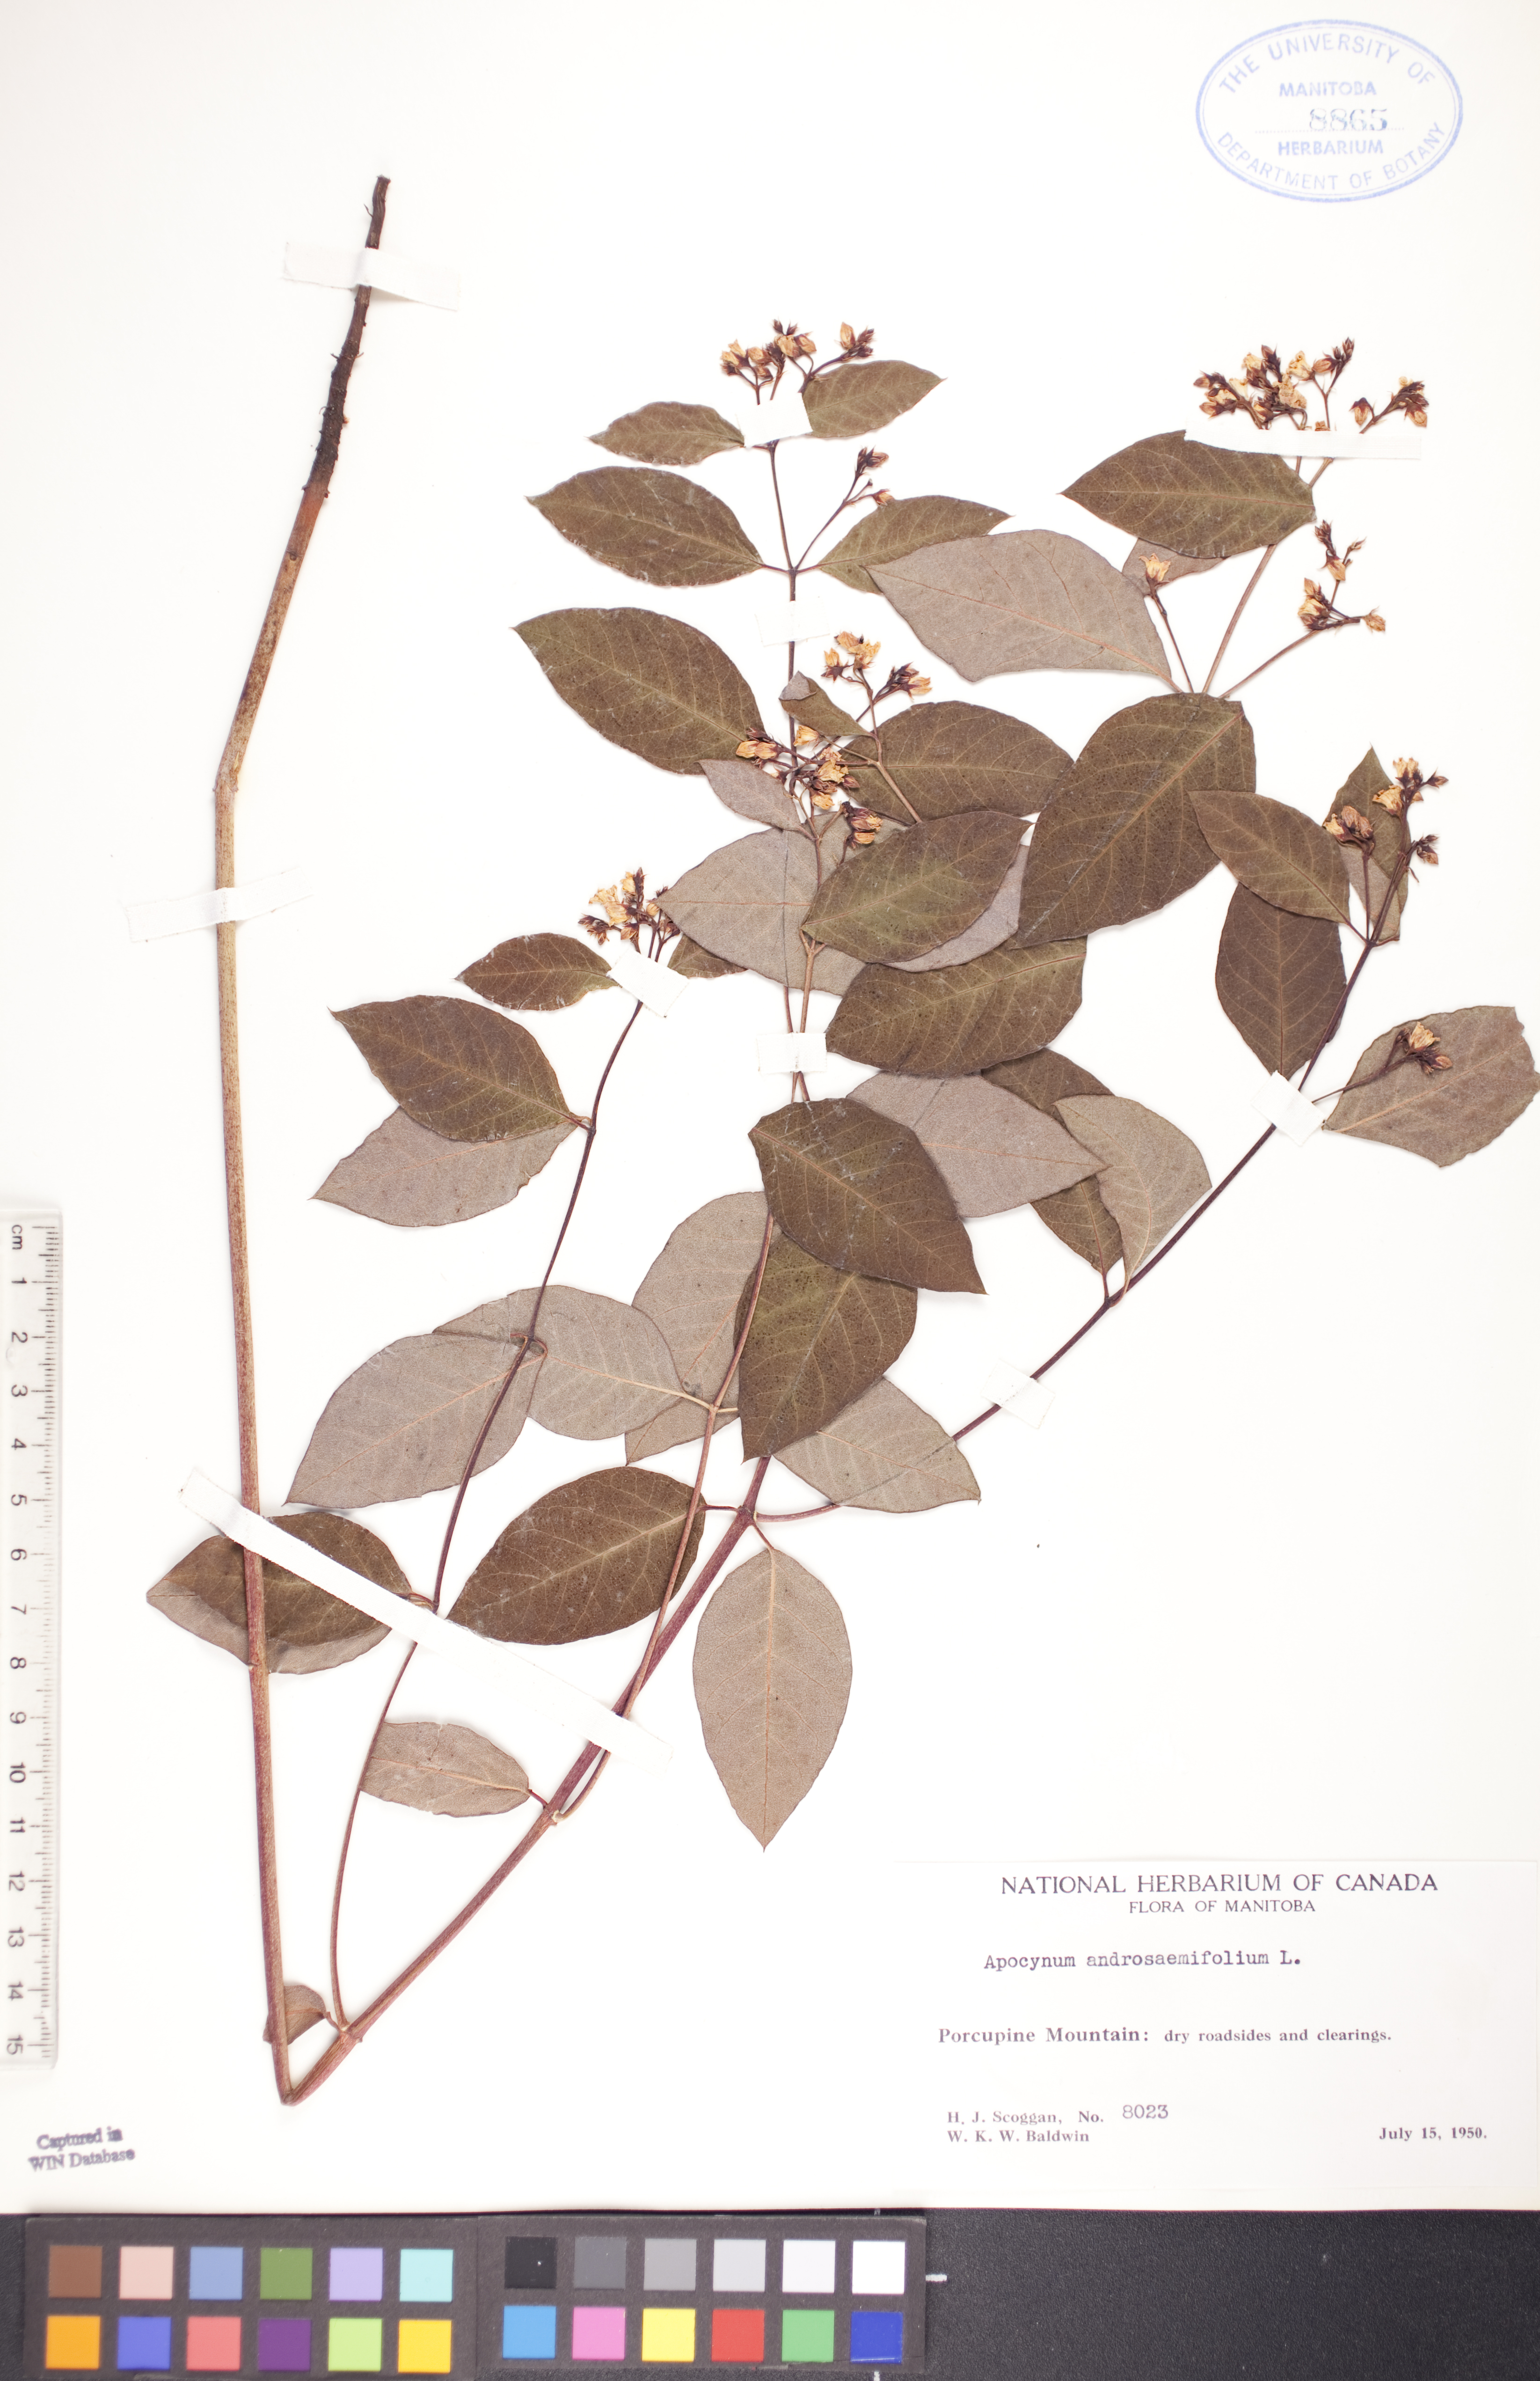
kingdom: Plantae
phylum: Tracheophyta
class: Magnoliopsida
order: Gentianales
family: Apocynaceae
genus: Apocynum
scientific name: Apocynum androsaemifolium
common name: Spreading dogbane
